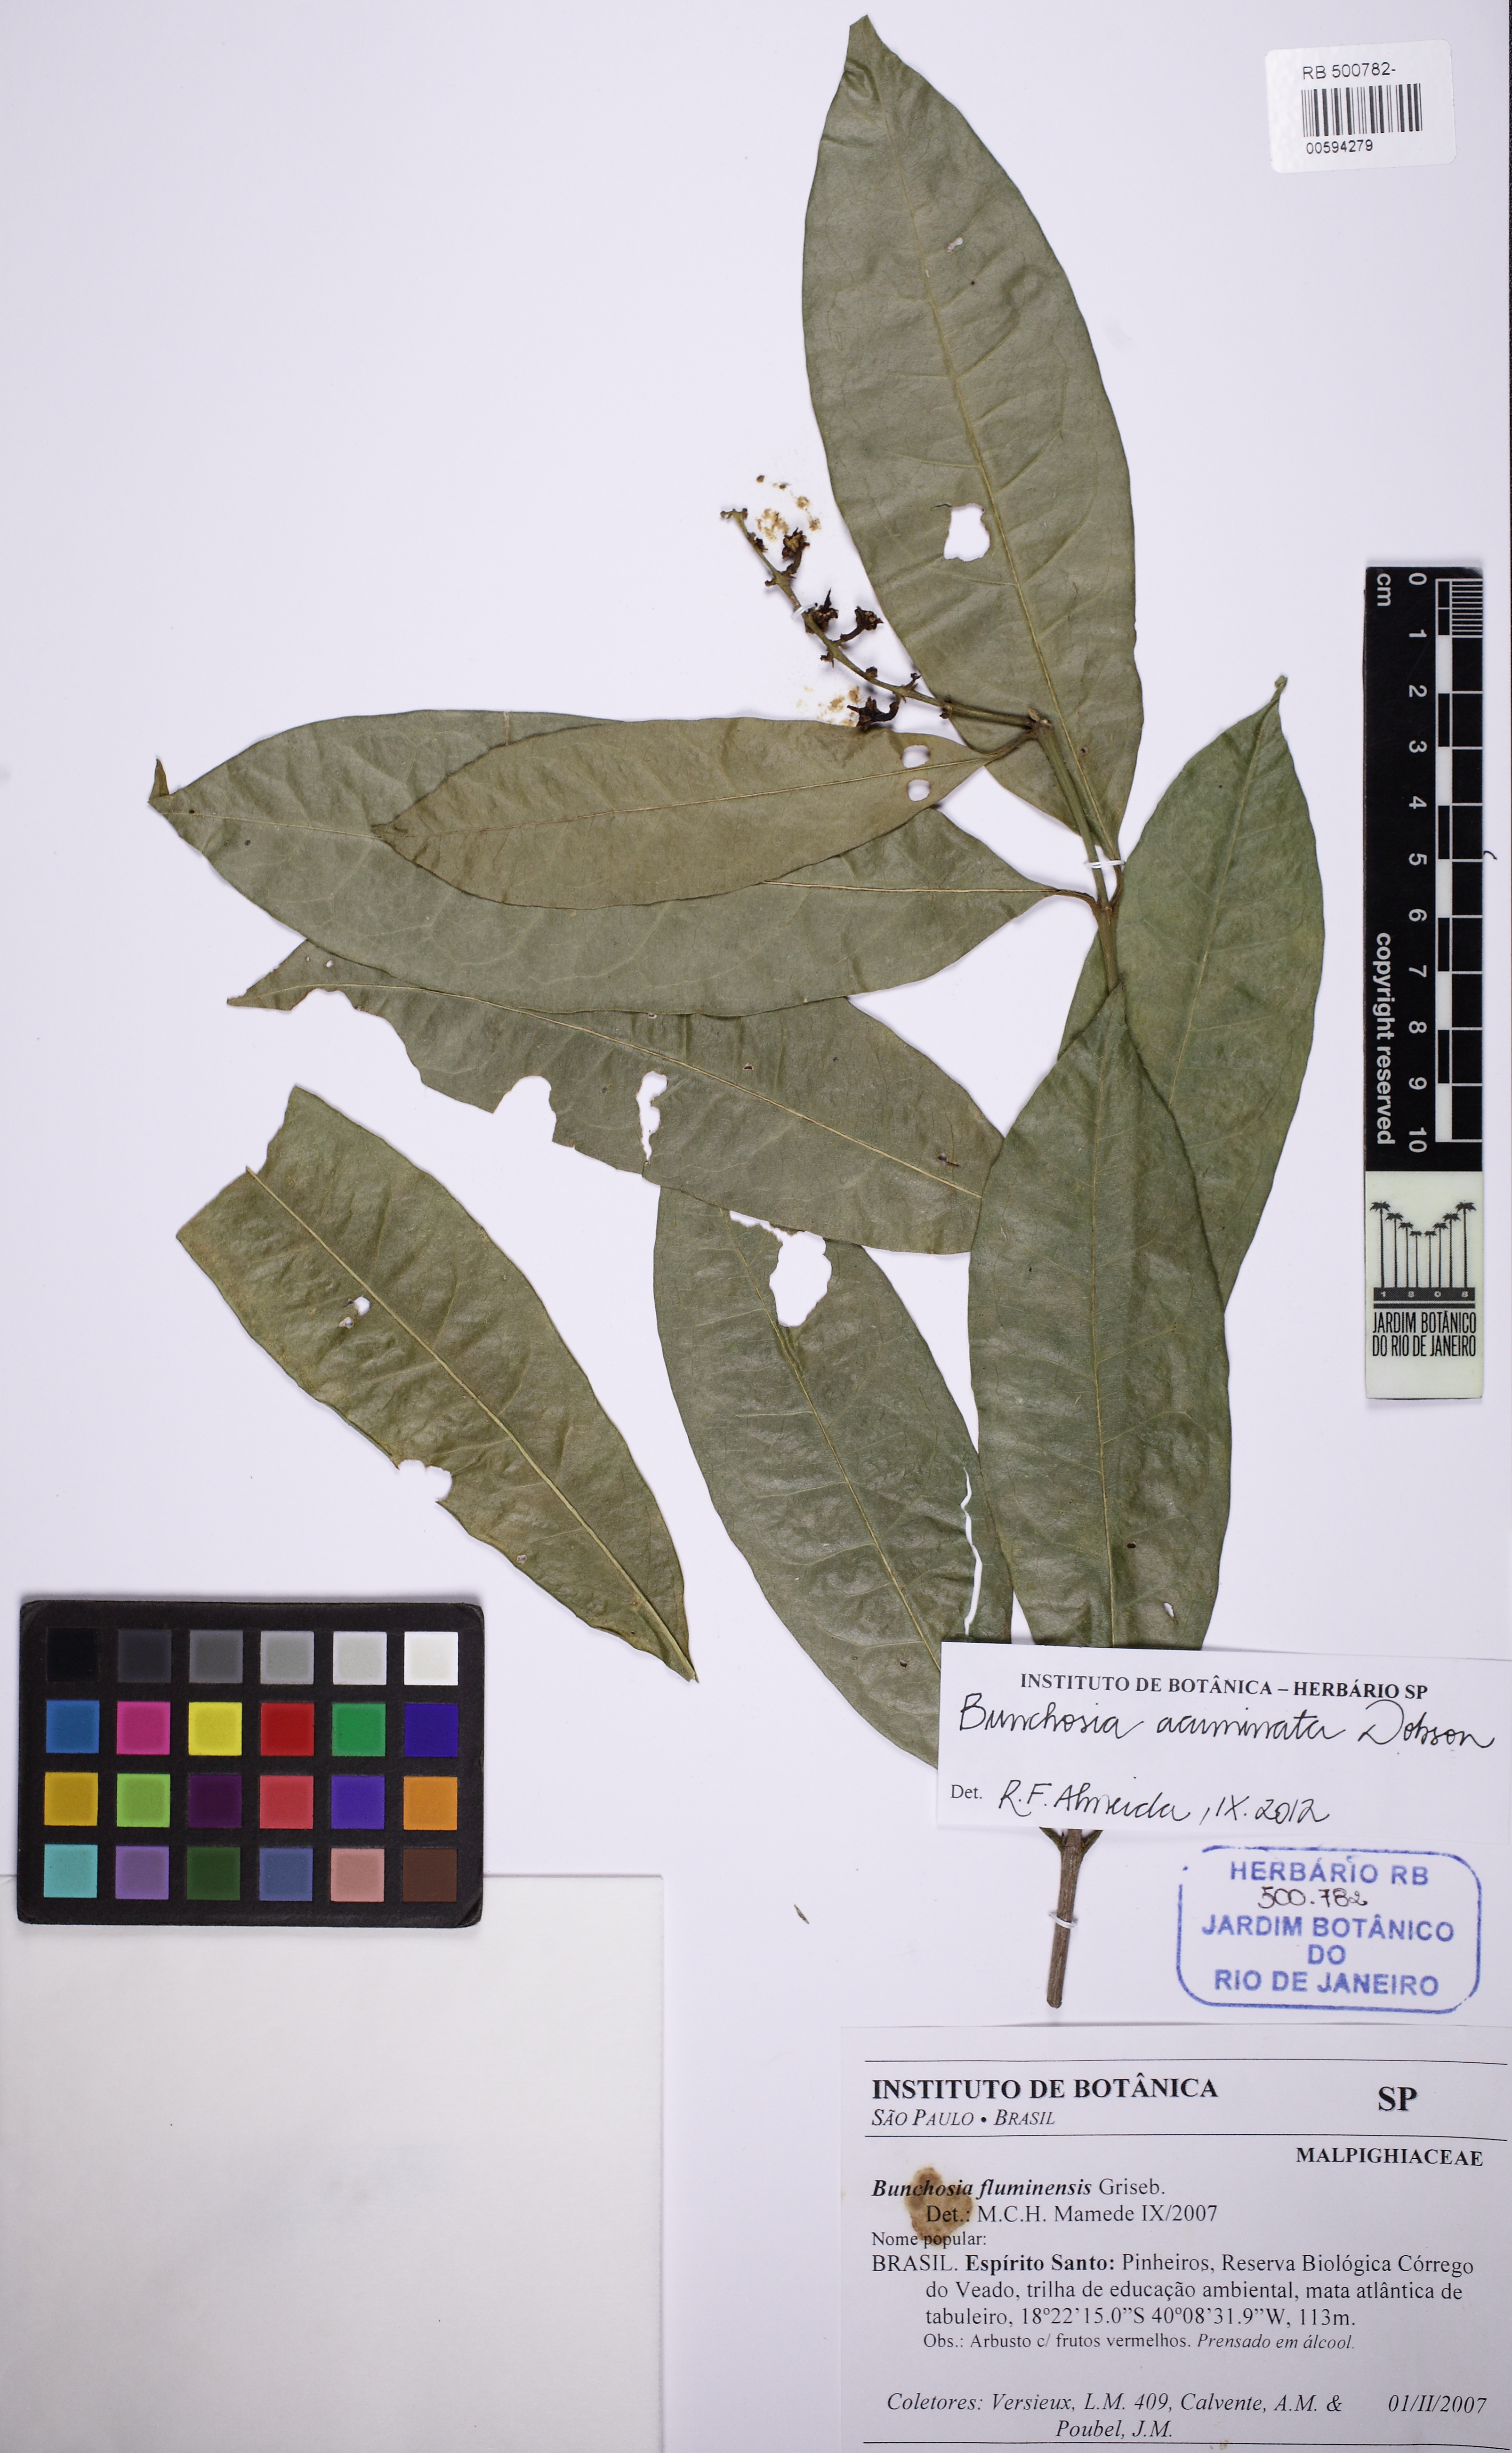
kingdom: Plantae
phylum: Tracheophyta
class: Magnoliopsida
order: Malpighiales
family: Malpighiaceae
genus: Bunchosia
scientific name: Bunchosia acuminata
